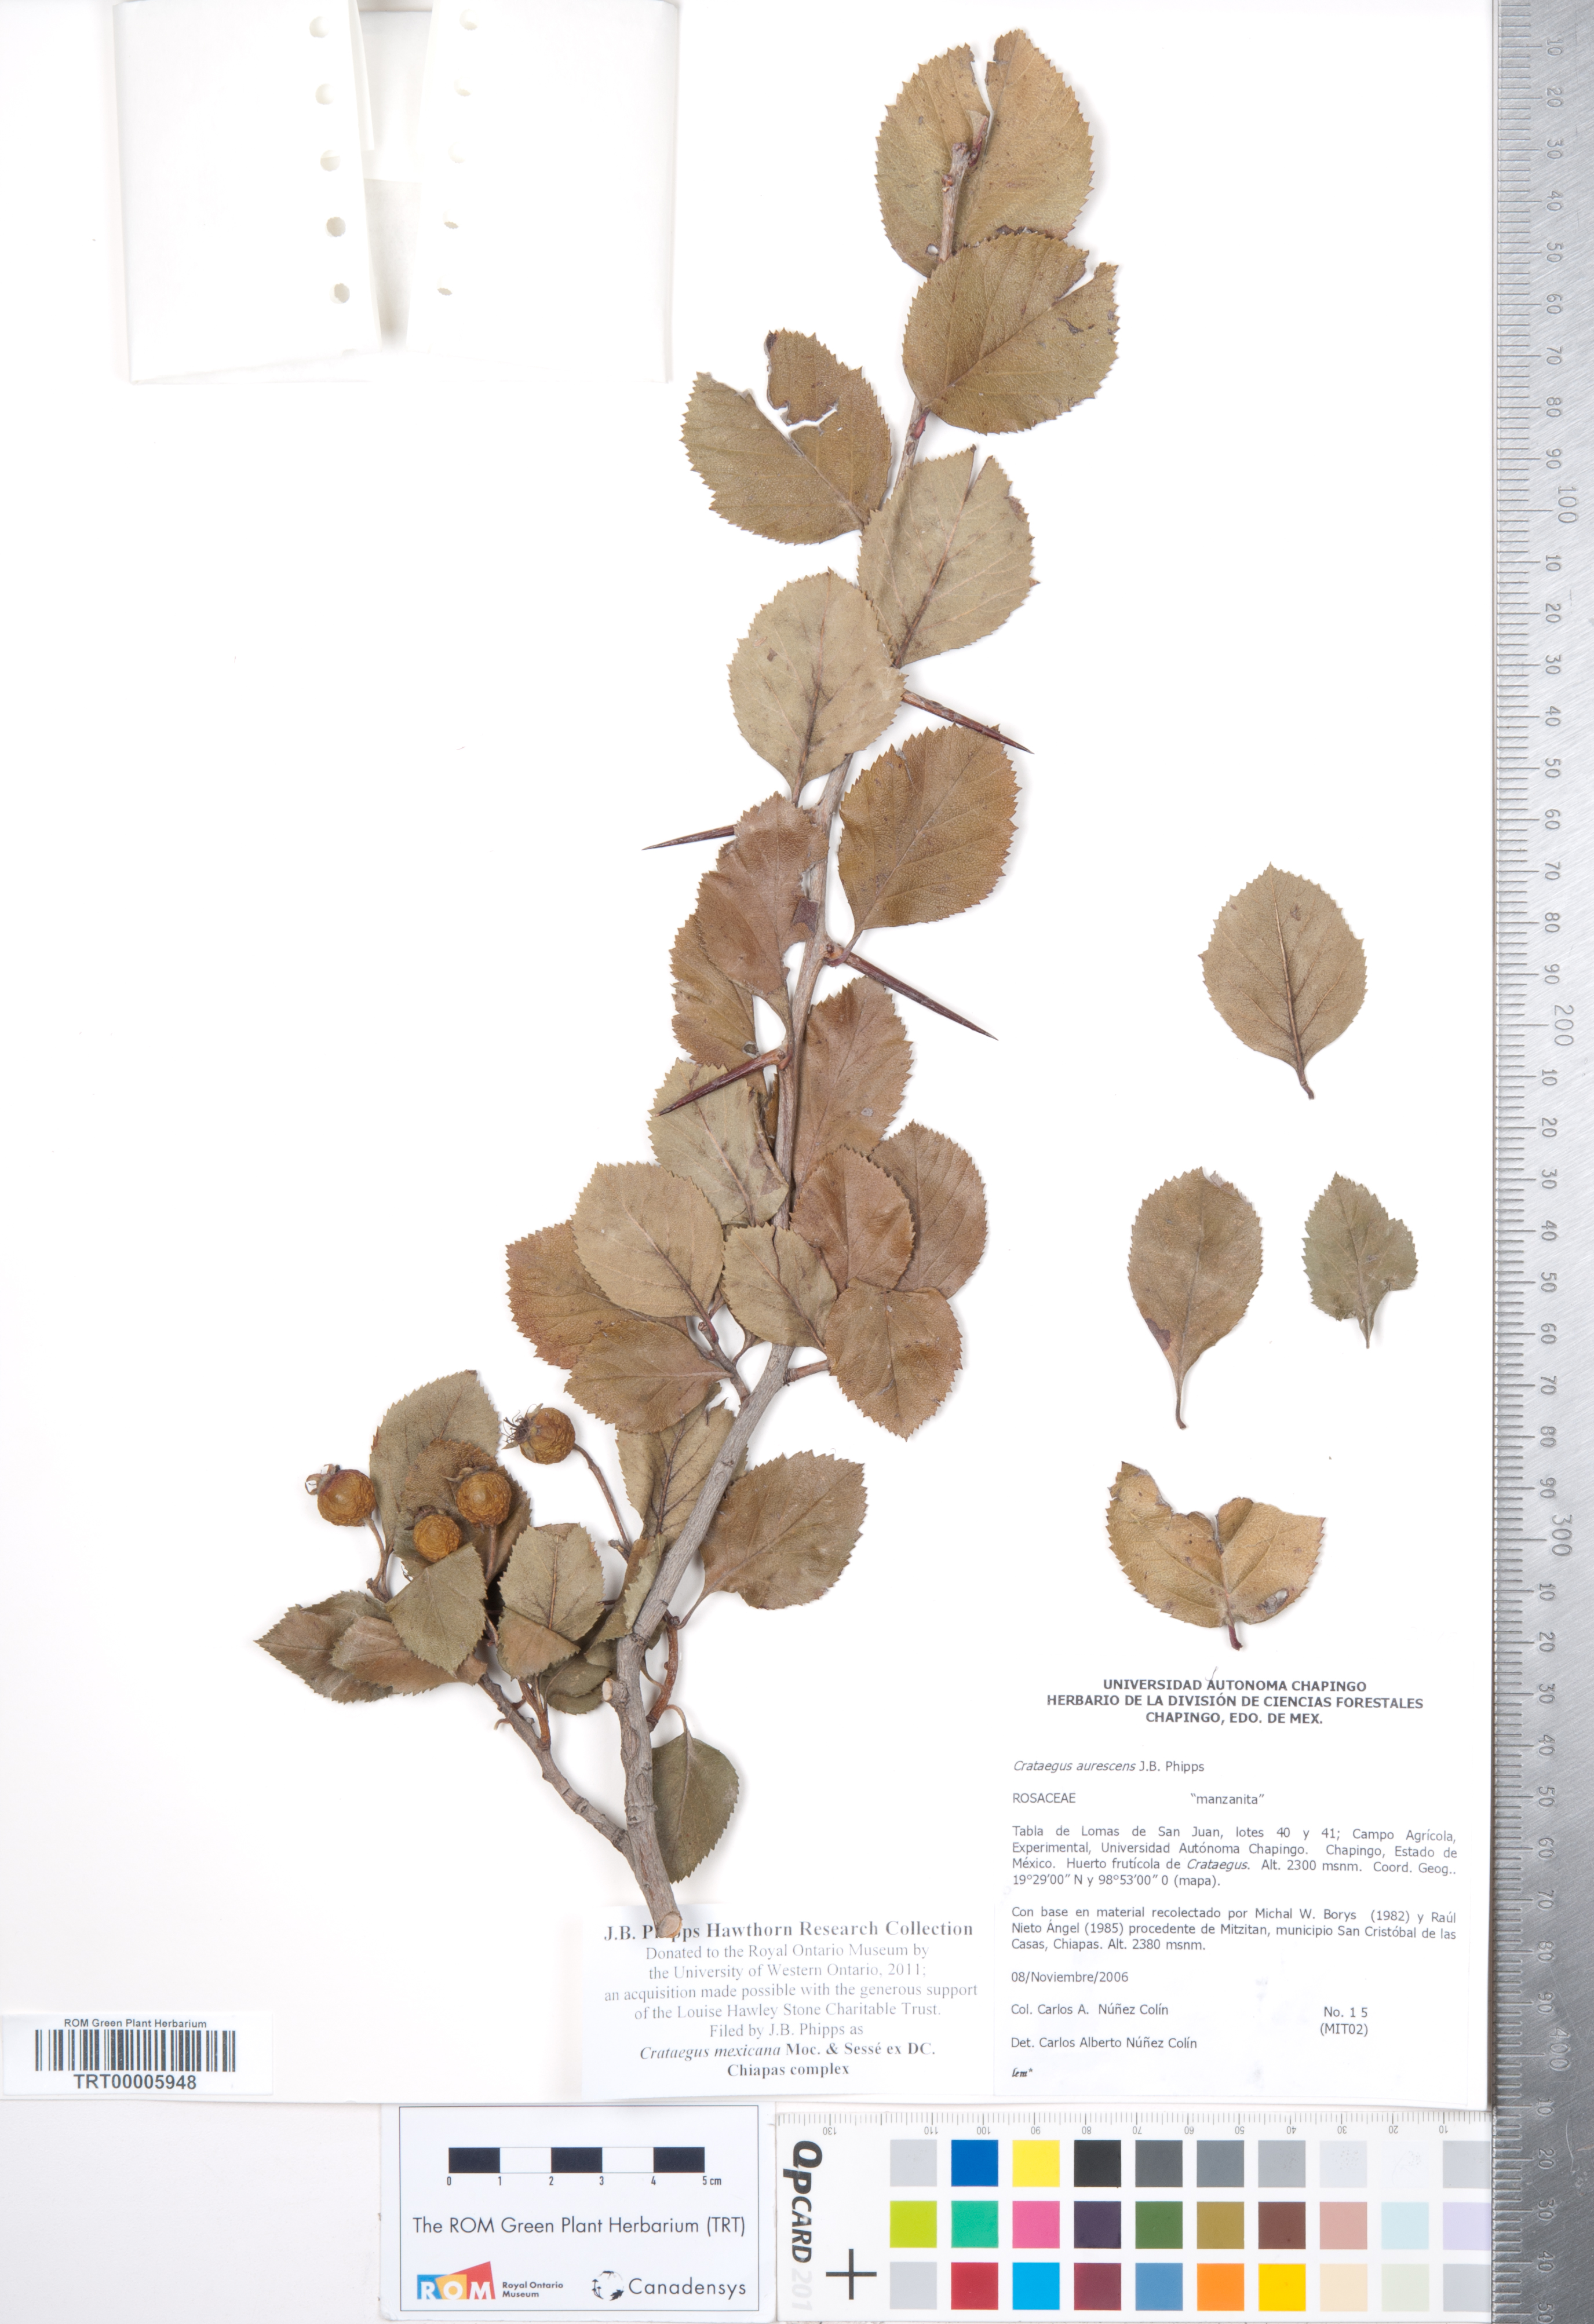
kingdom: Plantae
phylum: Tracheophyta
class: Magnoliopsida
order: Rosales
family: Rosaceae
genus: Crataegus
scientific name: Crataegus mexicana
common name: Mexican hawthorn
